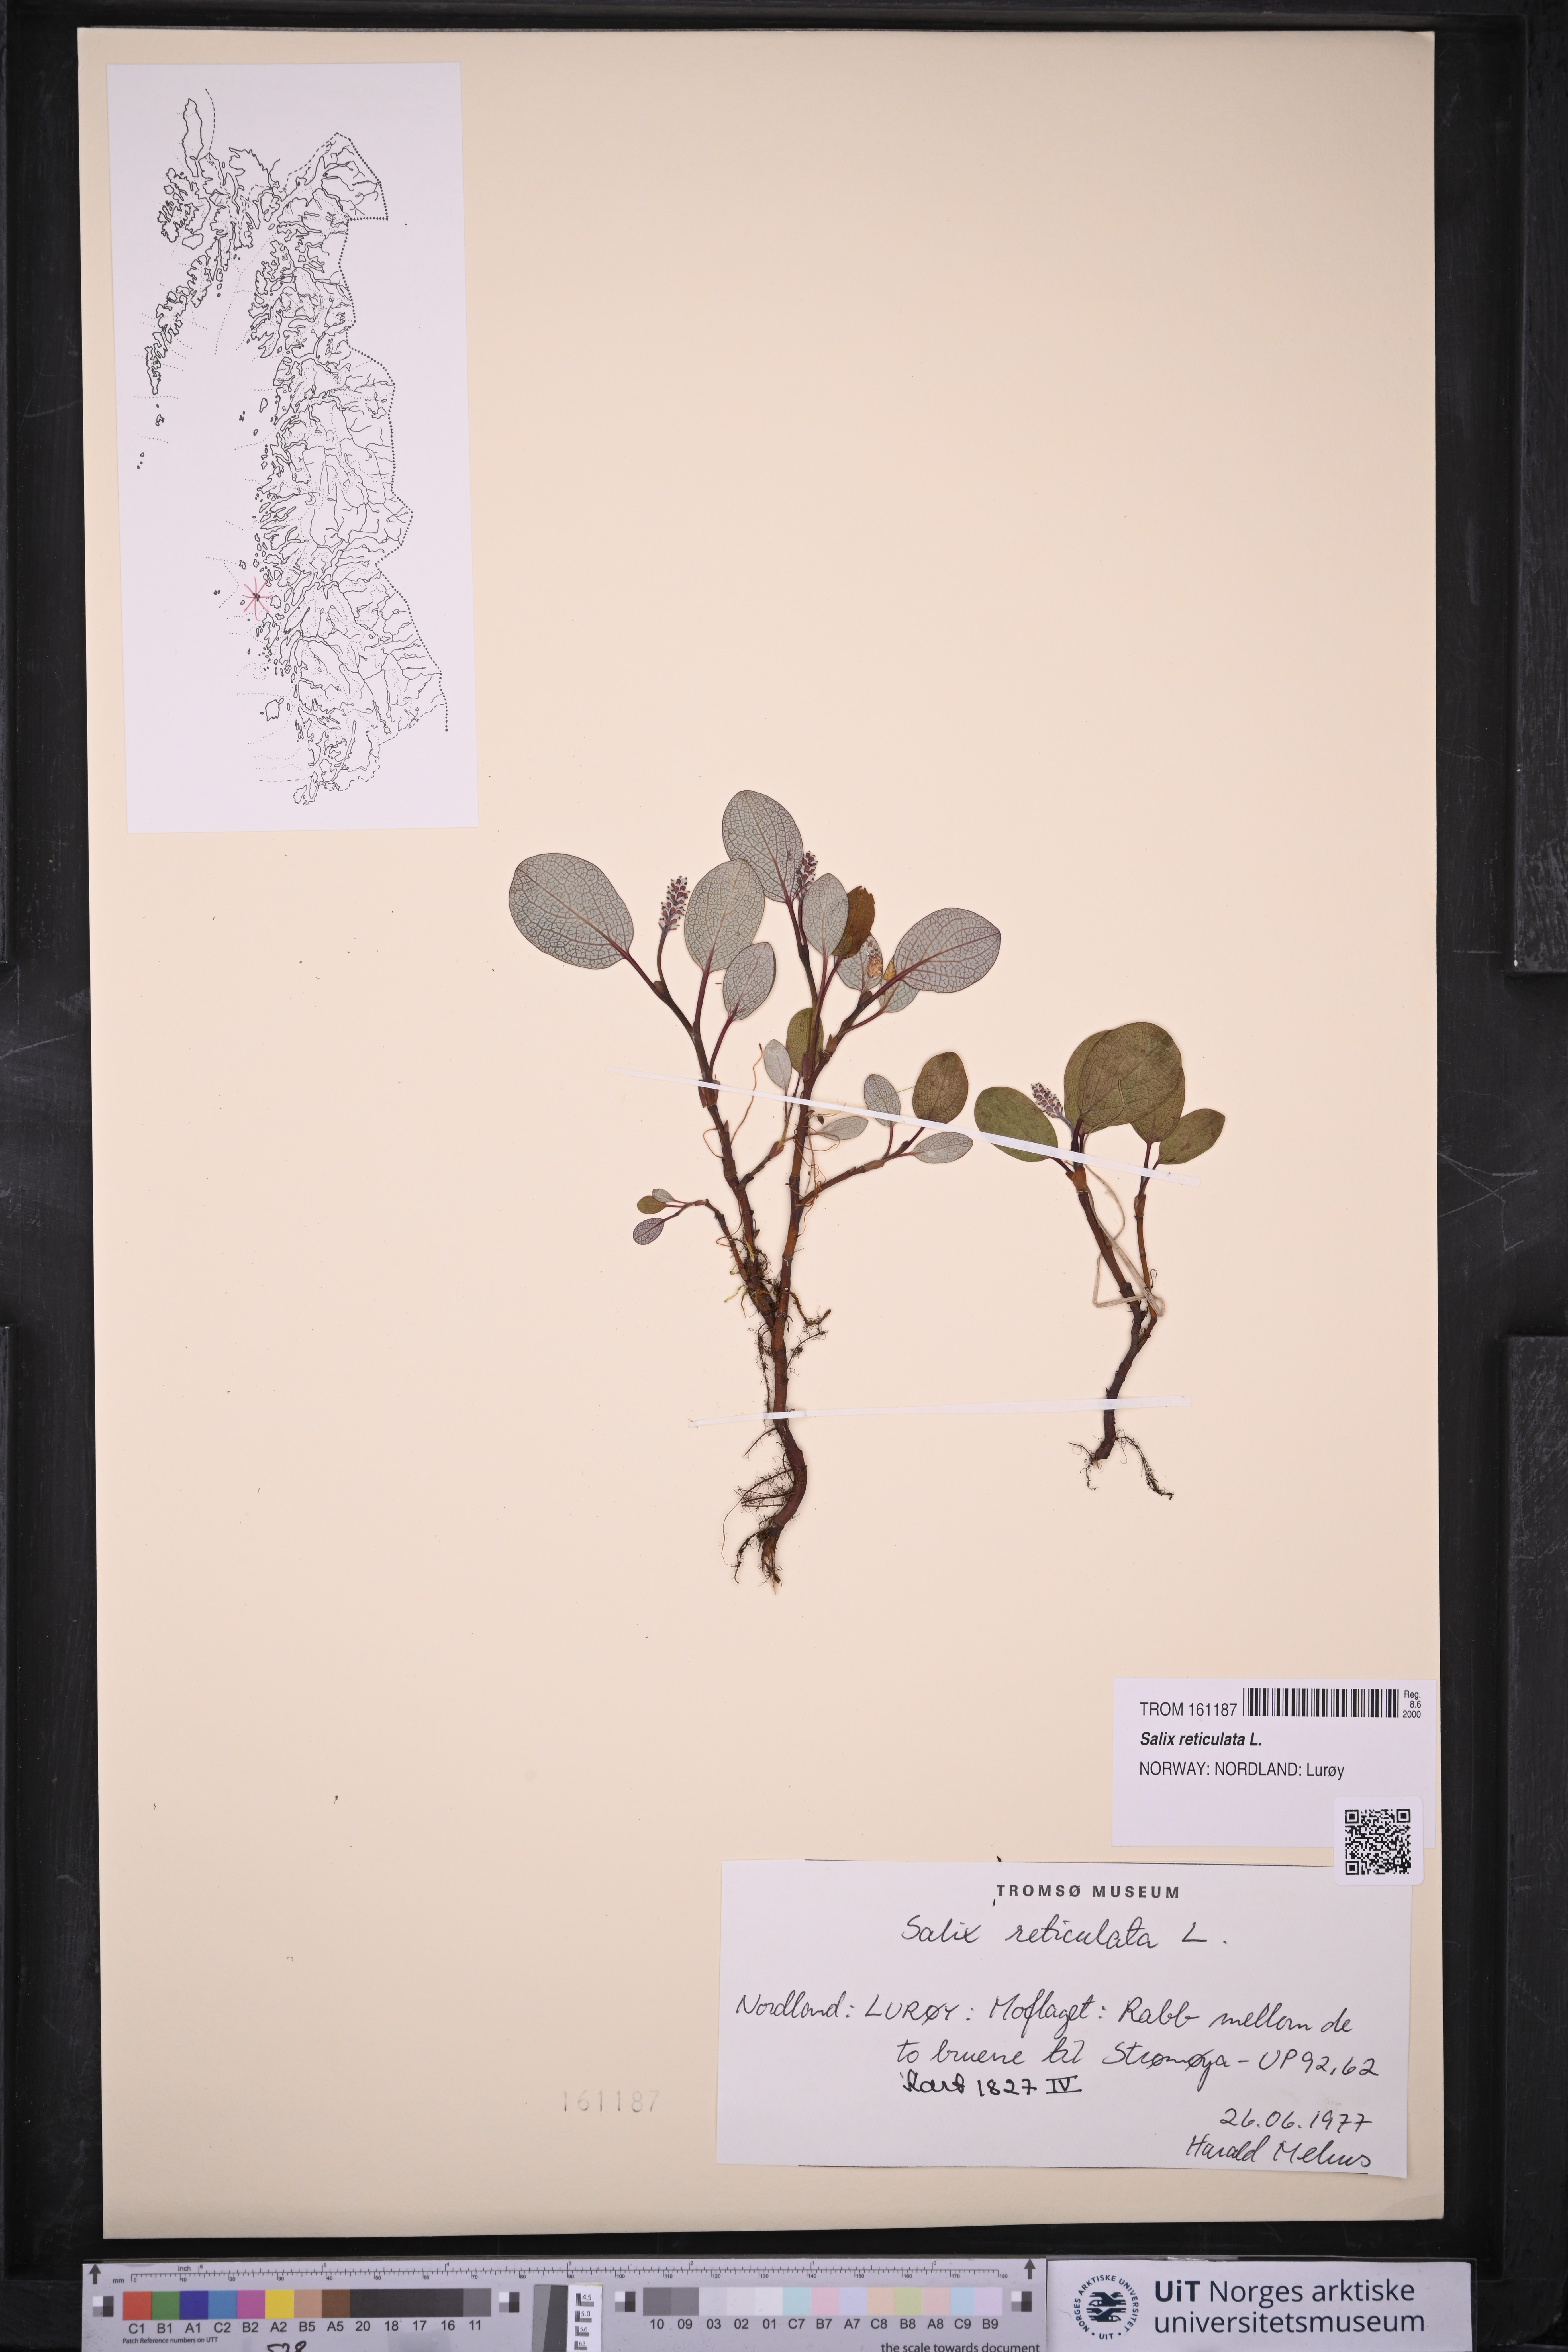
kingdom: Plantae
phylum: Tracheophyta
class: Magnoliopsida
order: Malpighiales
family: Salicaceae
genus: Salix
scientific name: Salix reticulata
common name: Net-leaved willow
